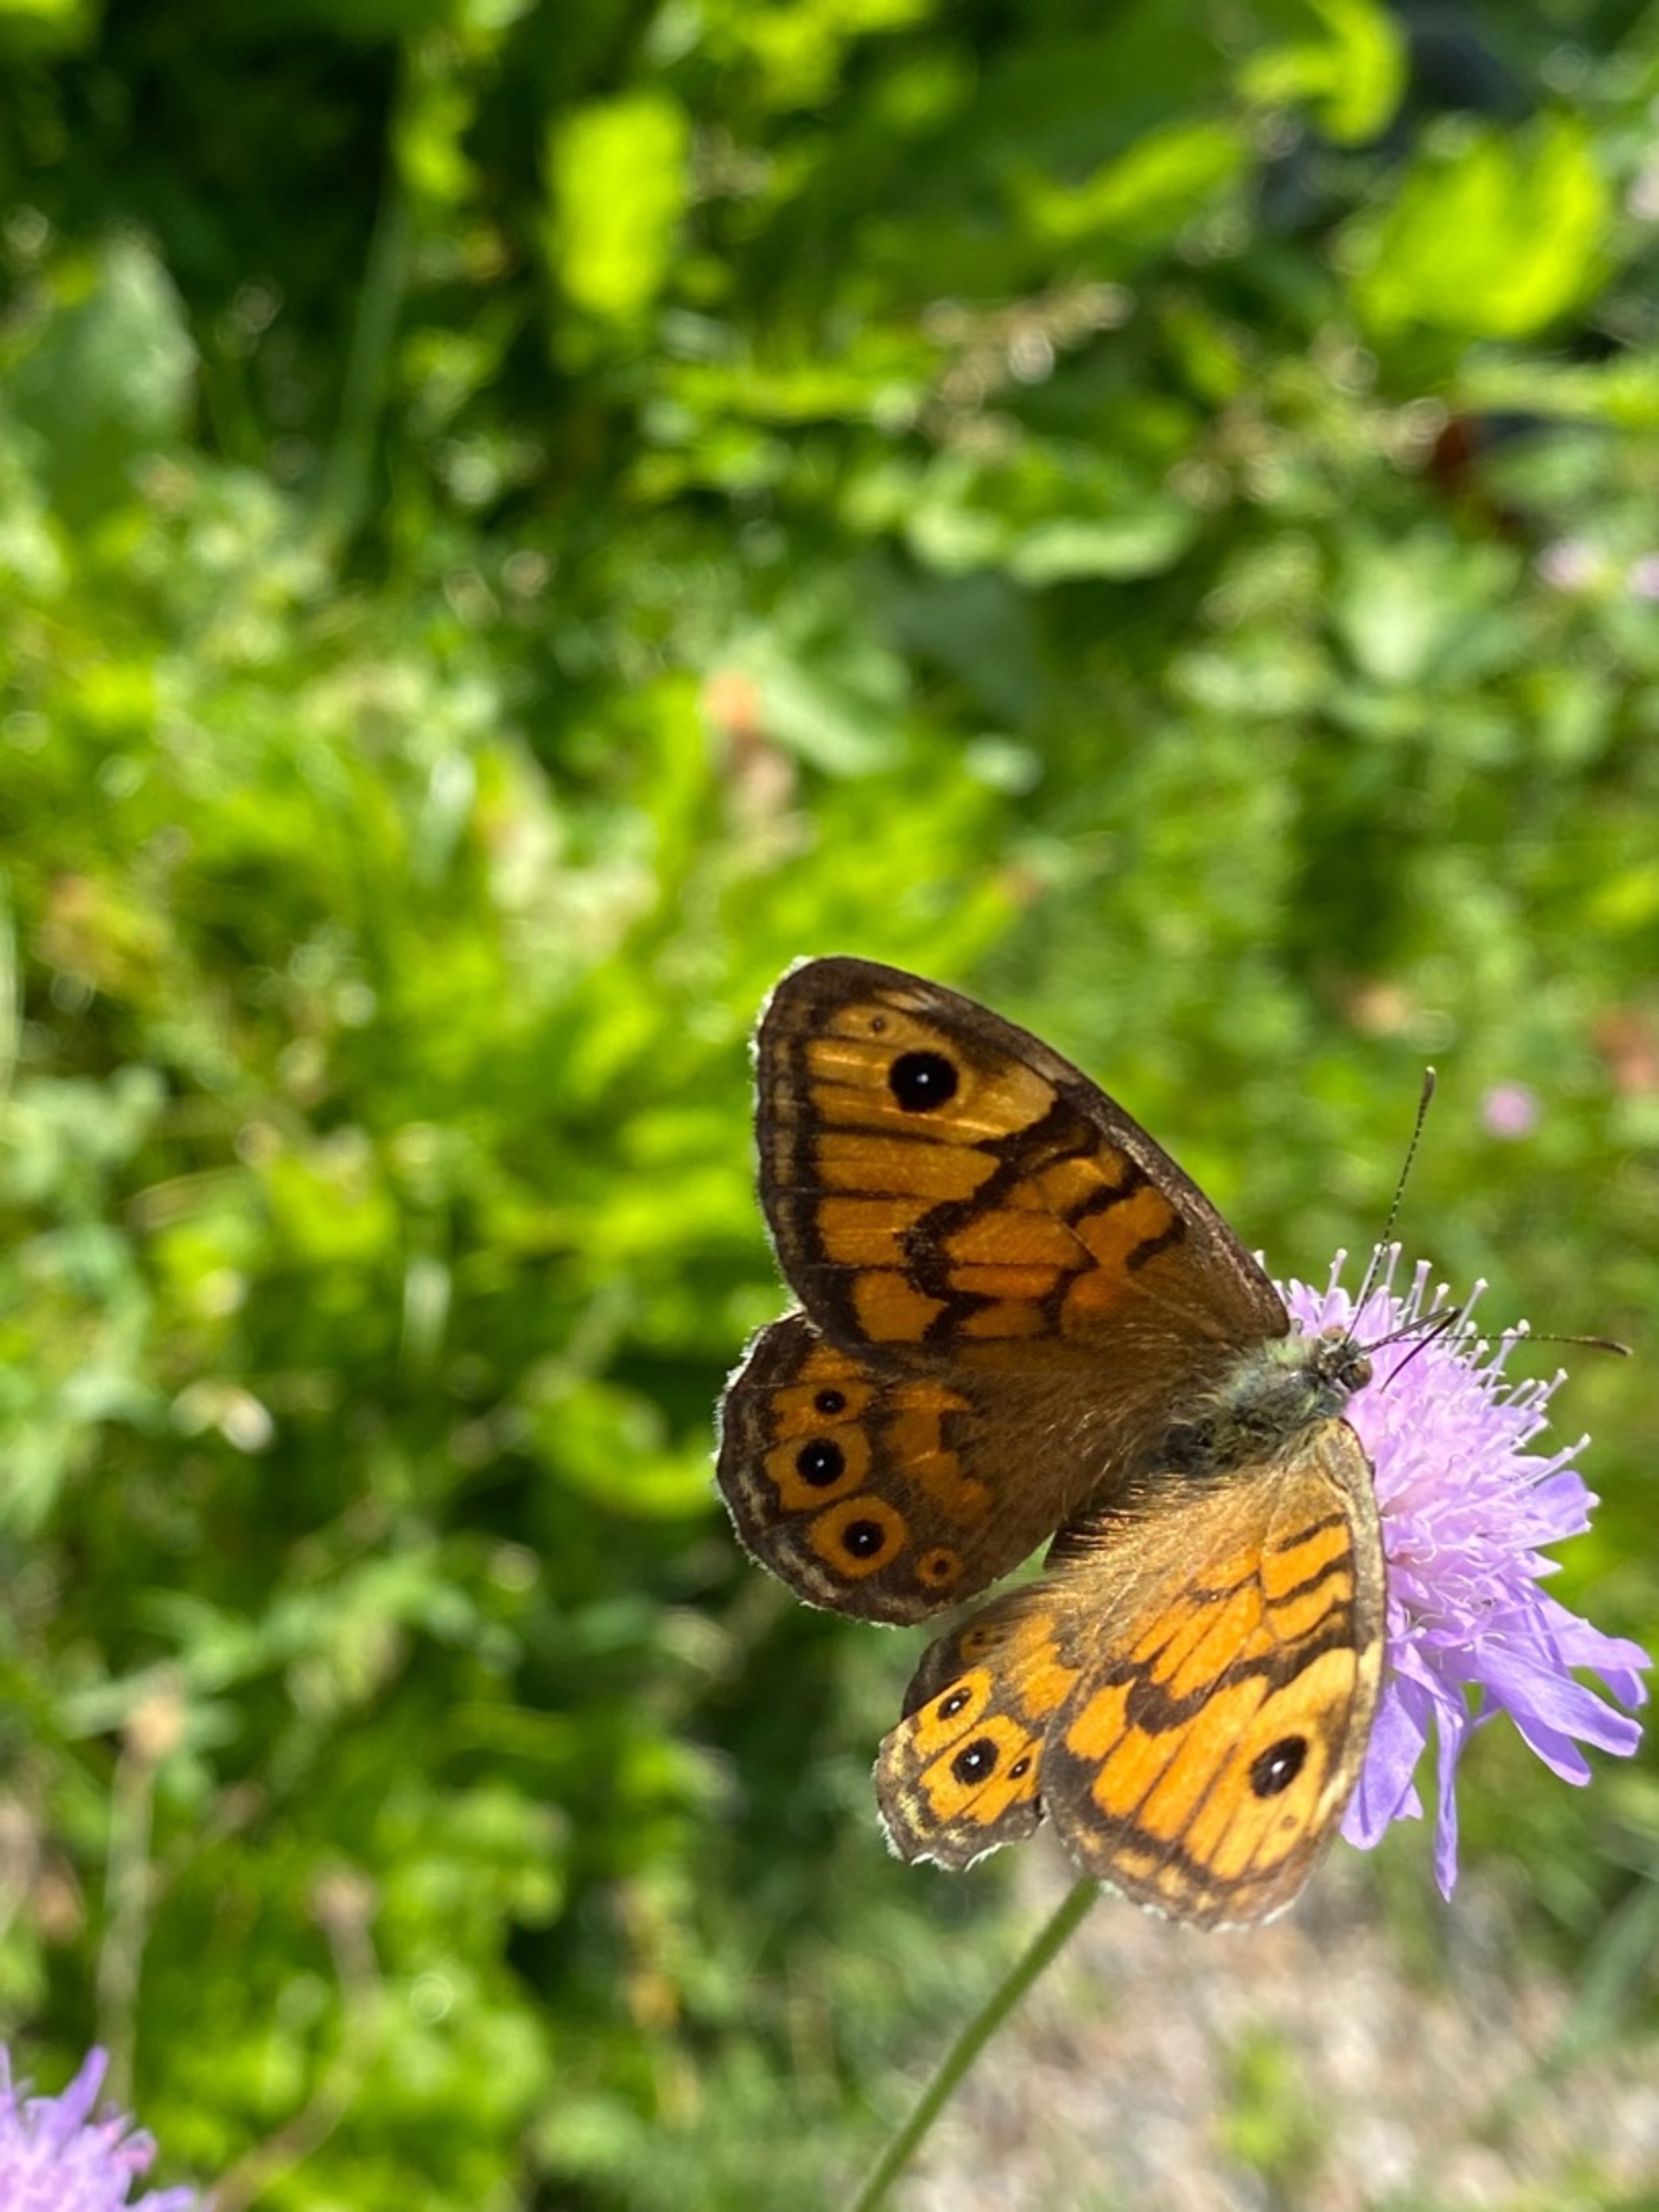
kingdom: Animalia
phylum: Arthropoda
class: Insecta
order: Lepidoptera
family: Nymphalidae
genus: Pararge
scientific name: Pararge Lasiommata megera
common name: Vejrandøje
